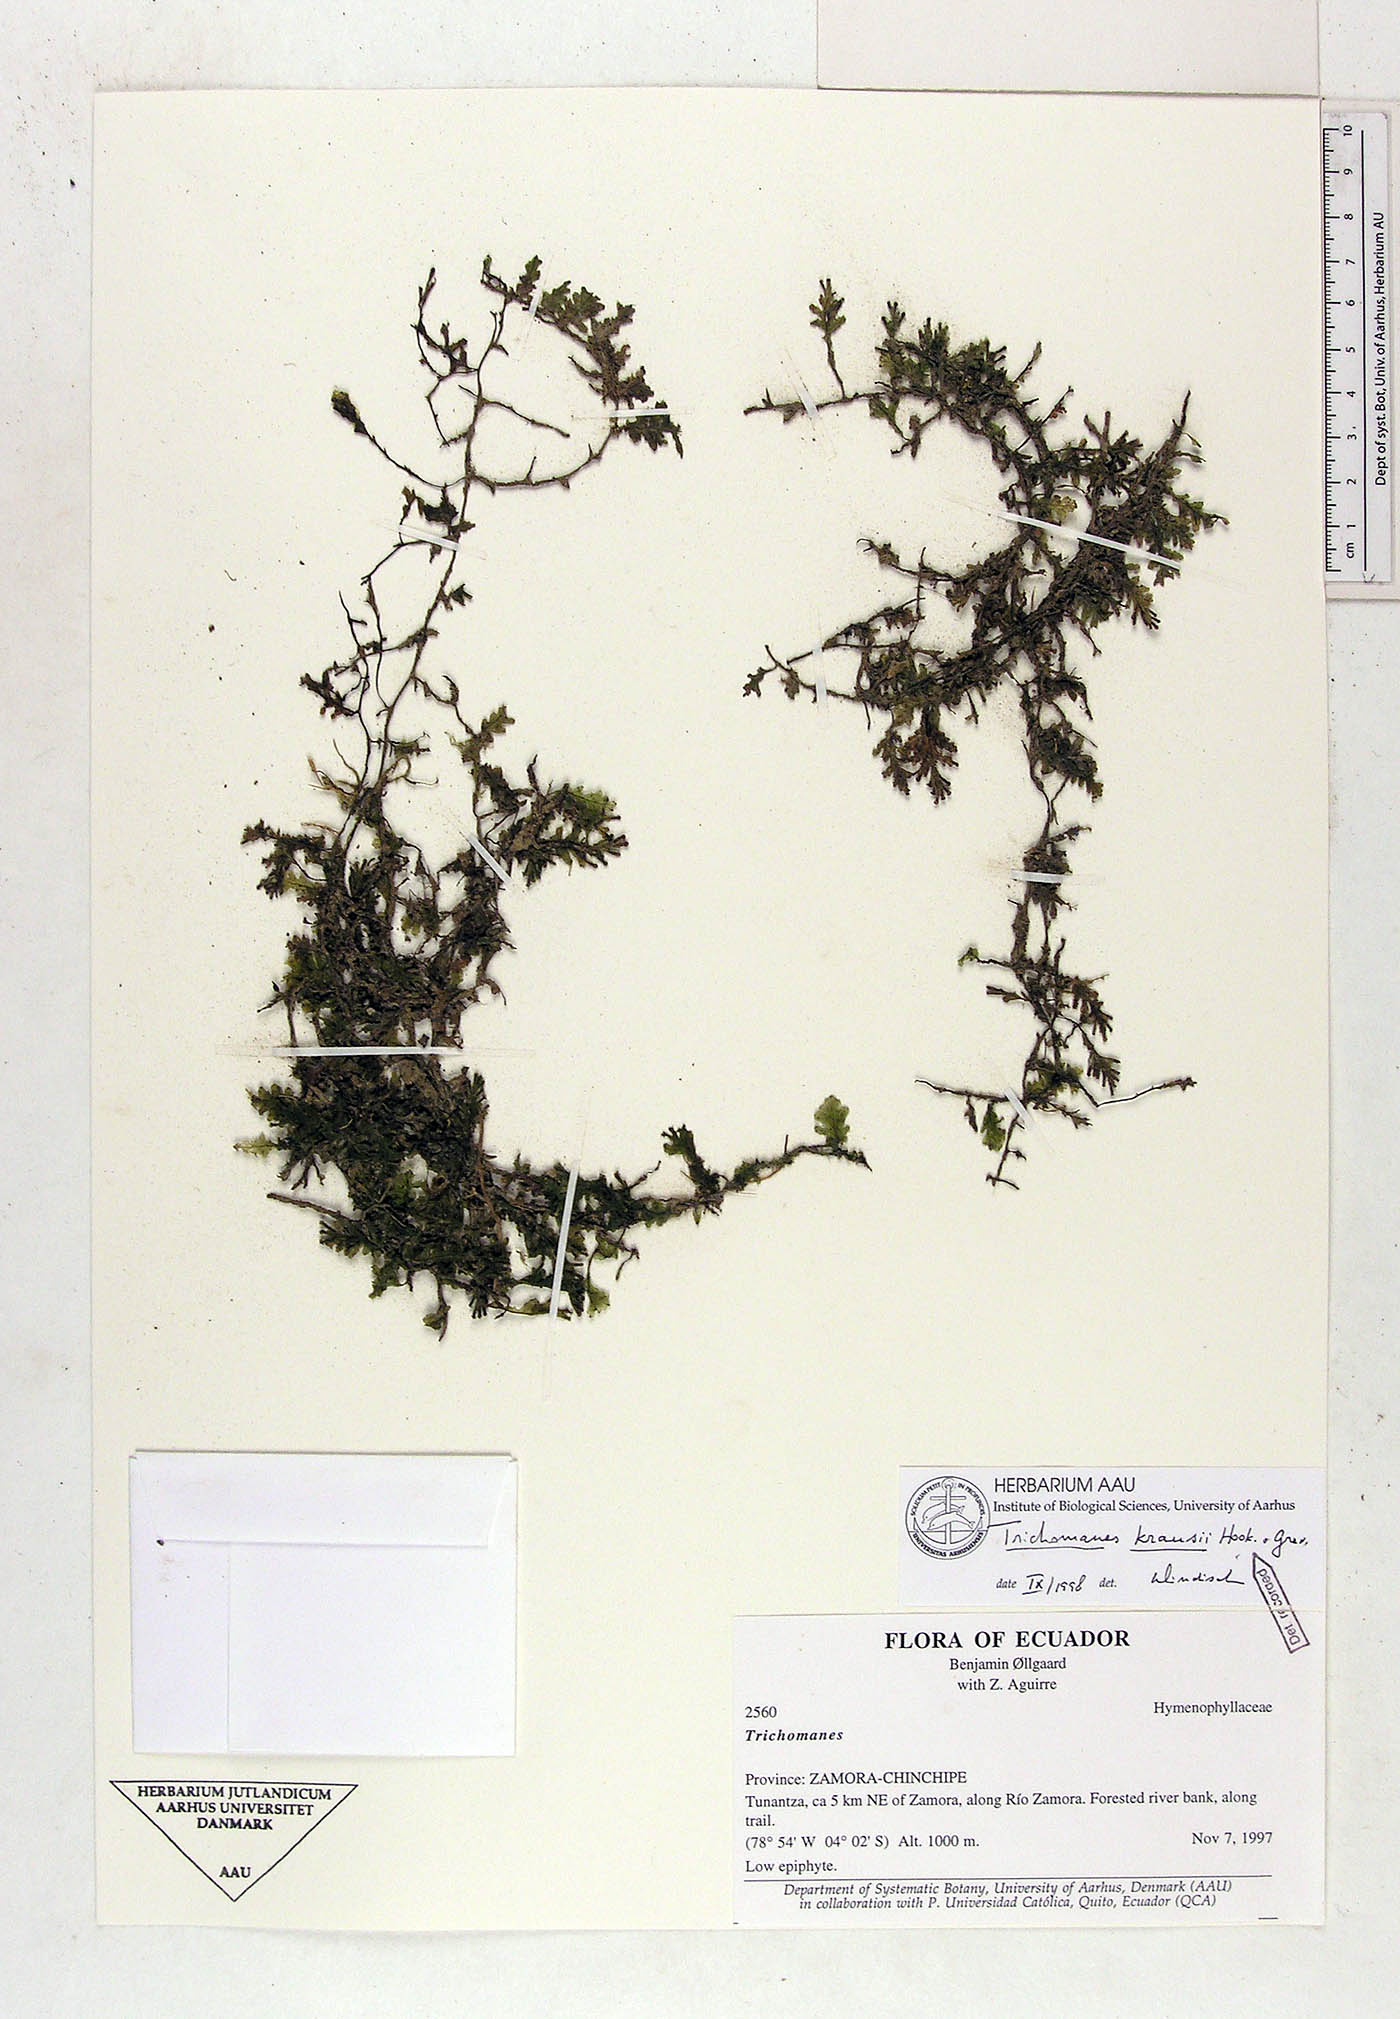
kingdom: Plantae
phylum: Tracheophyta
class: Polypodiopsida
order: Hymenophyllales
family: Hymenophyllaceae
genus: Didymoglossum
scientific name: Didymoglossum kraussii
